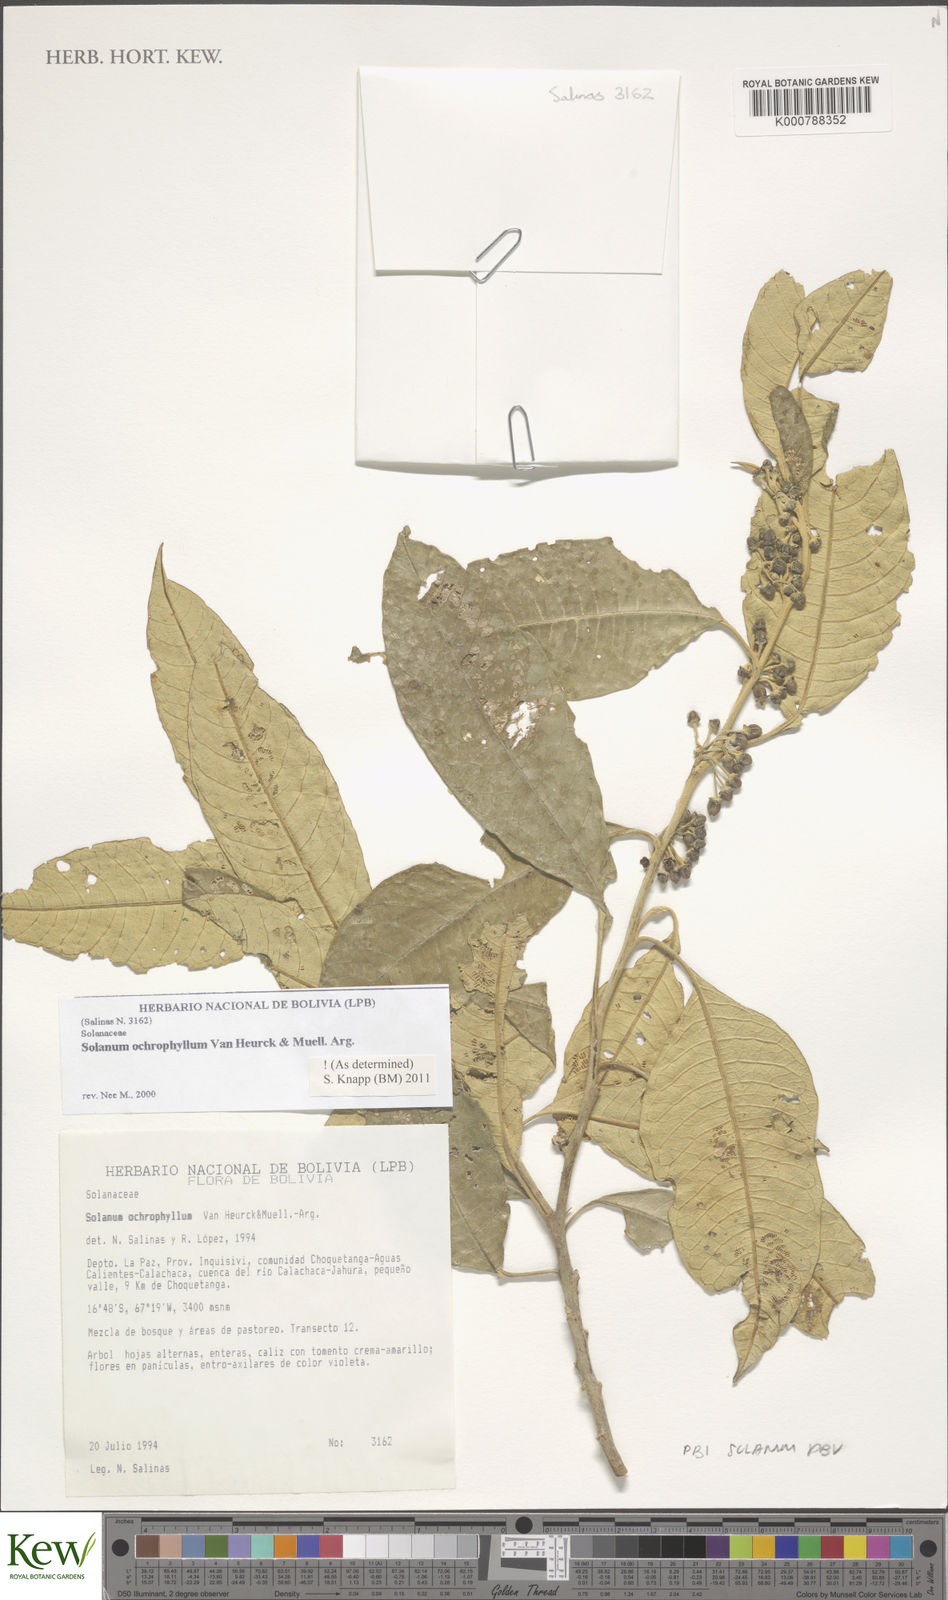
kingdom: Plantae
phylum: Tracheophyta
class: Magnoliopsida
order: Solanales
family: Solanaceae
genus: Solanum
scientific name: Solanum
